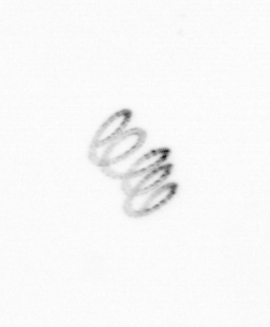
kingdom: Chromista
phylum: Ochrophyta
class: Bacillariophyceae
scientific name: Bacillariophyceae
